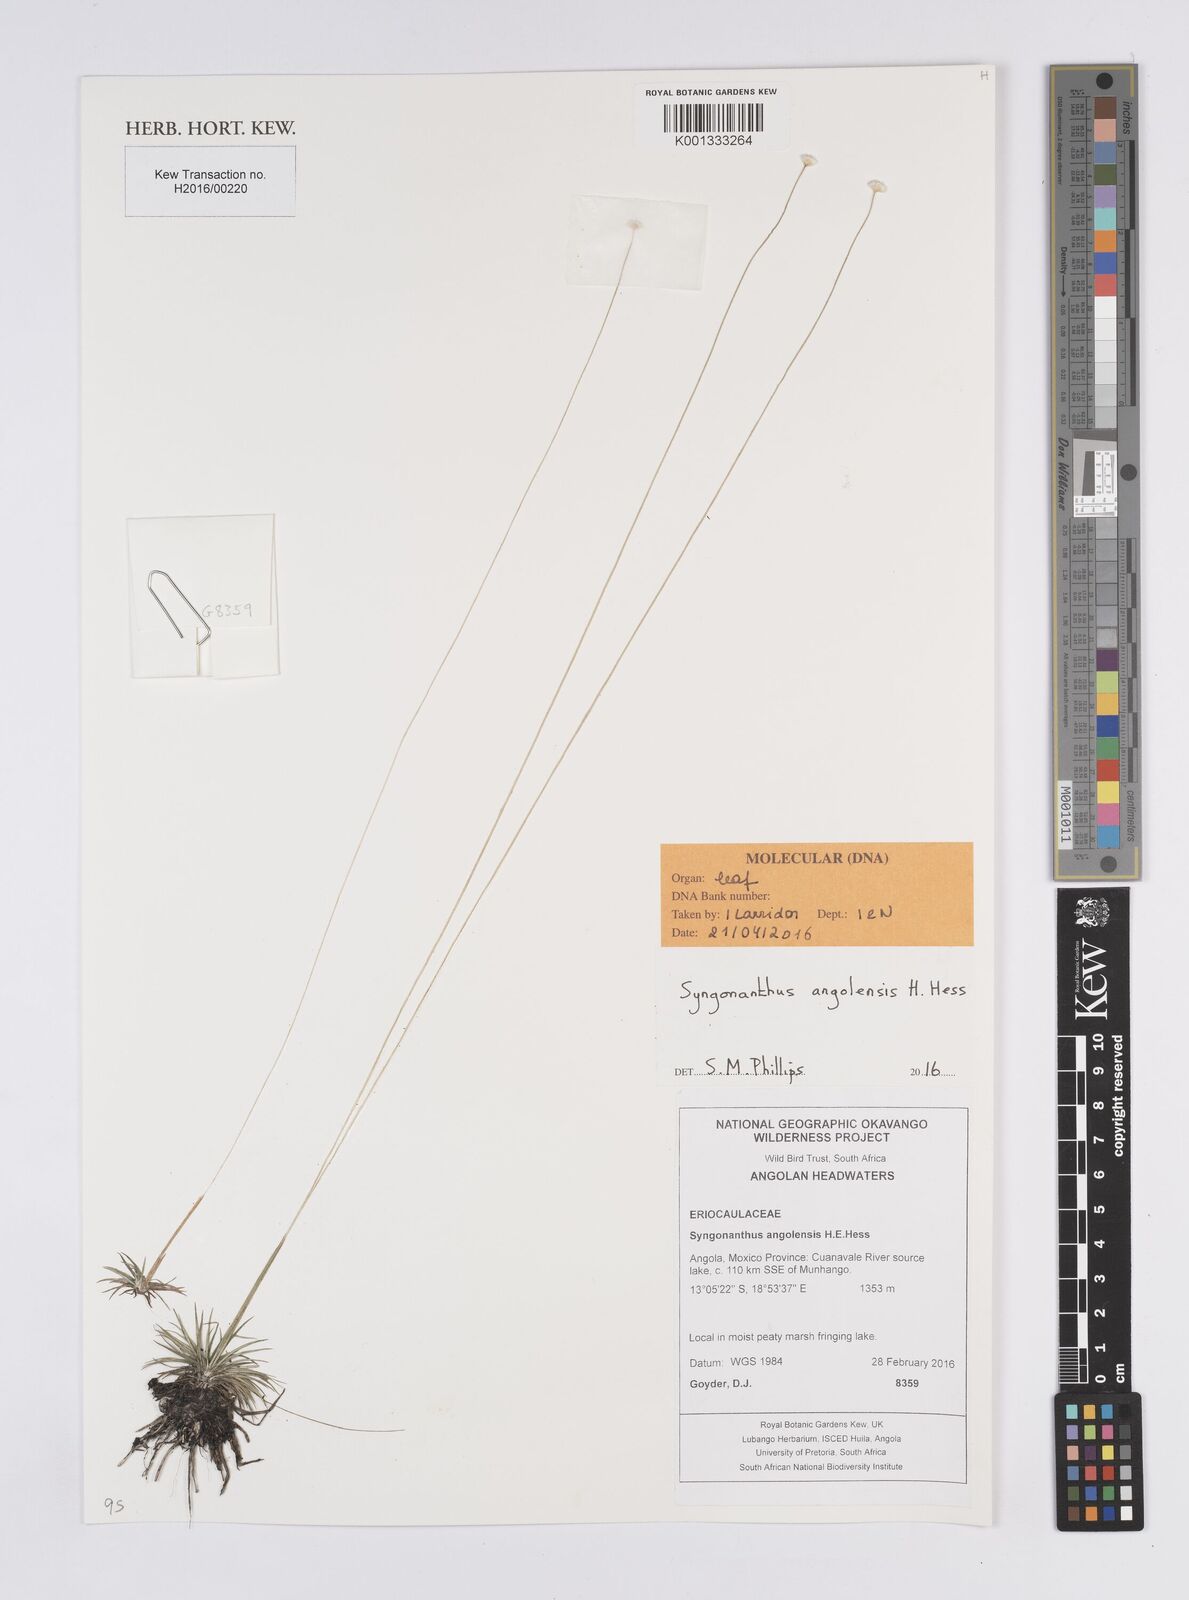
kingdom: Plantae
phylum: Tracheophyta
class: Liliopsida
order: Poales
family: Eriocaulaceae
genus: Syngonanthus
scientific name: Syngonanthus angolensis
